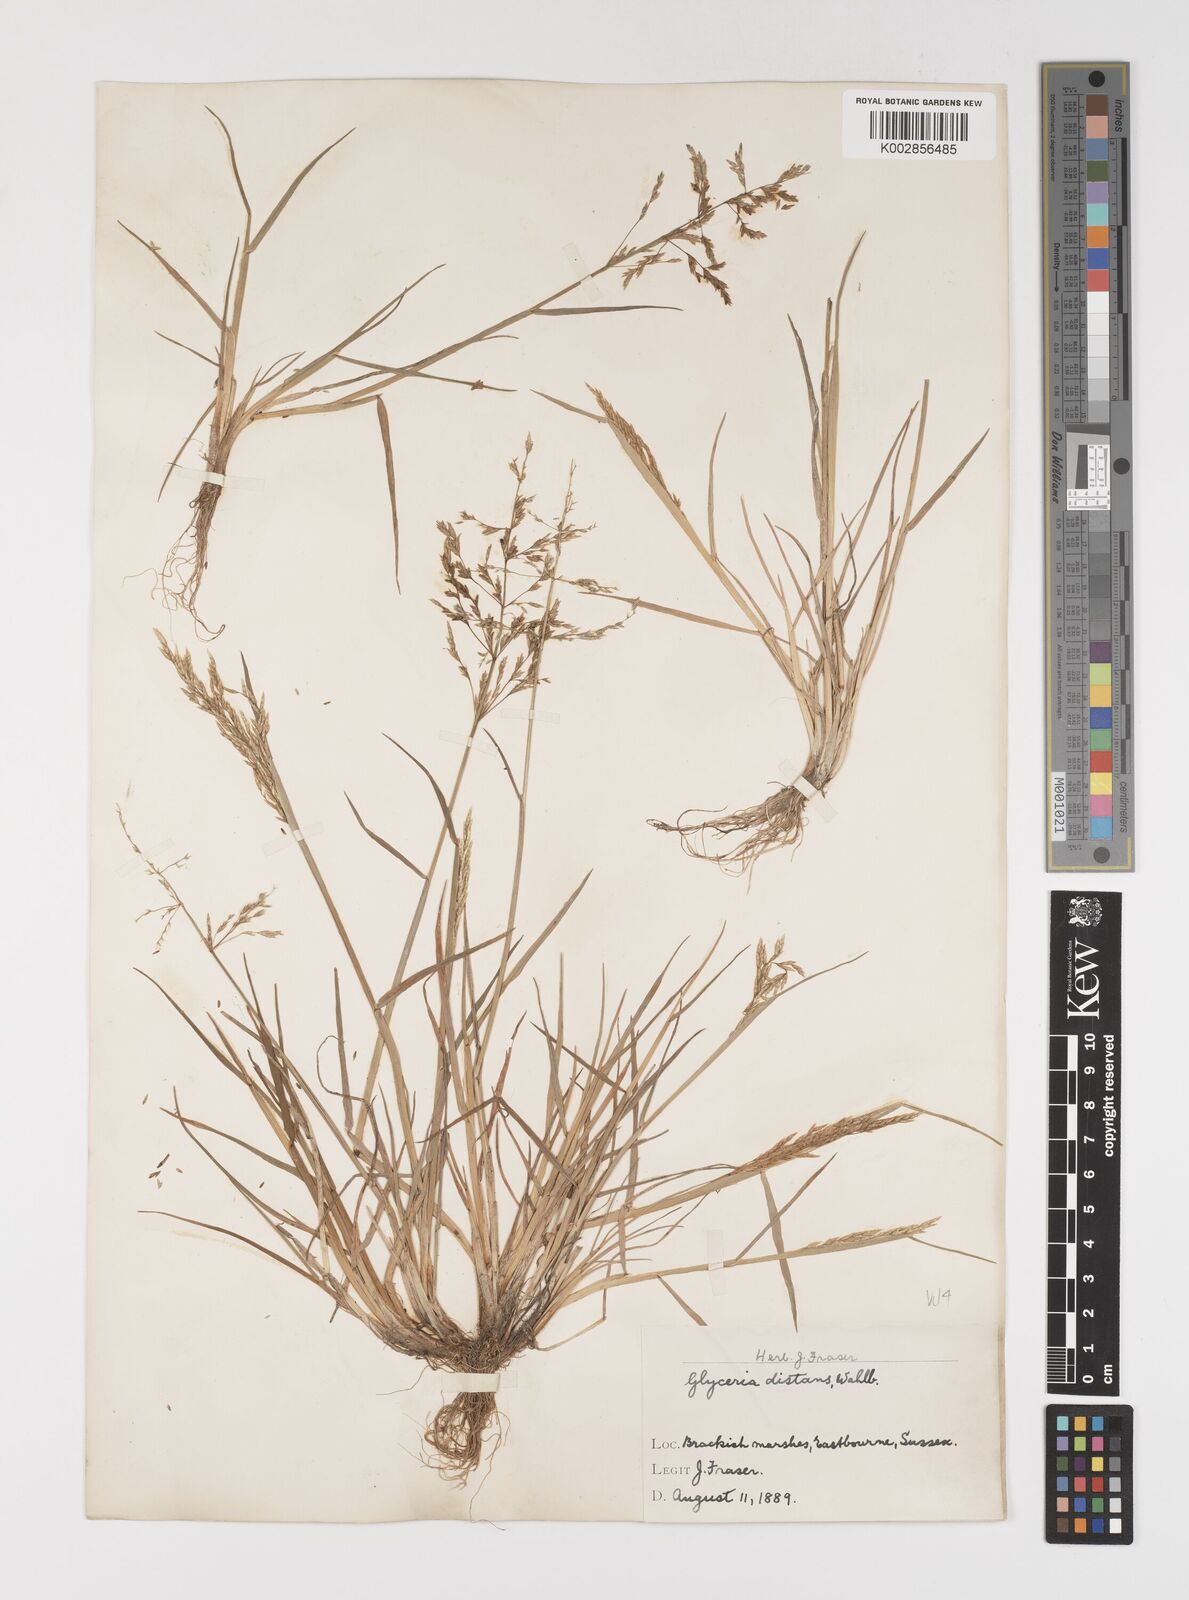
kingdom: Plantae
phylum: Tracheophyta
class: Liliopsida
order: Poales
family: Poaceae
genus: Puccinellia
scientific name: Puccinellia distans
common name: Weeping alkaligrass
